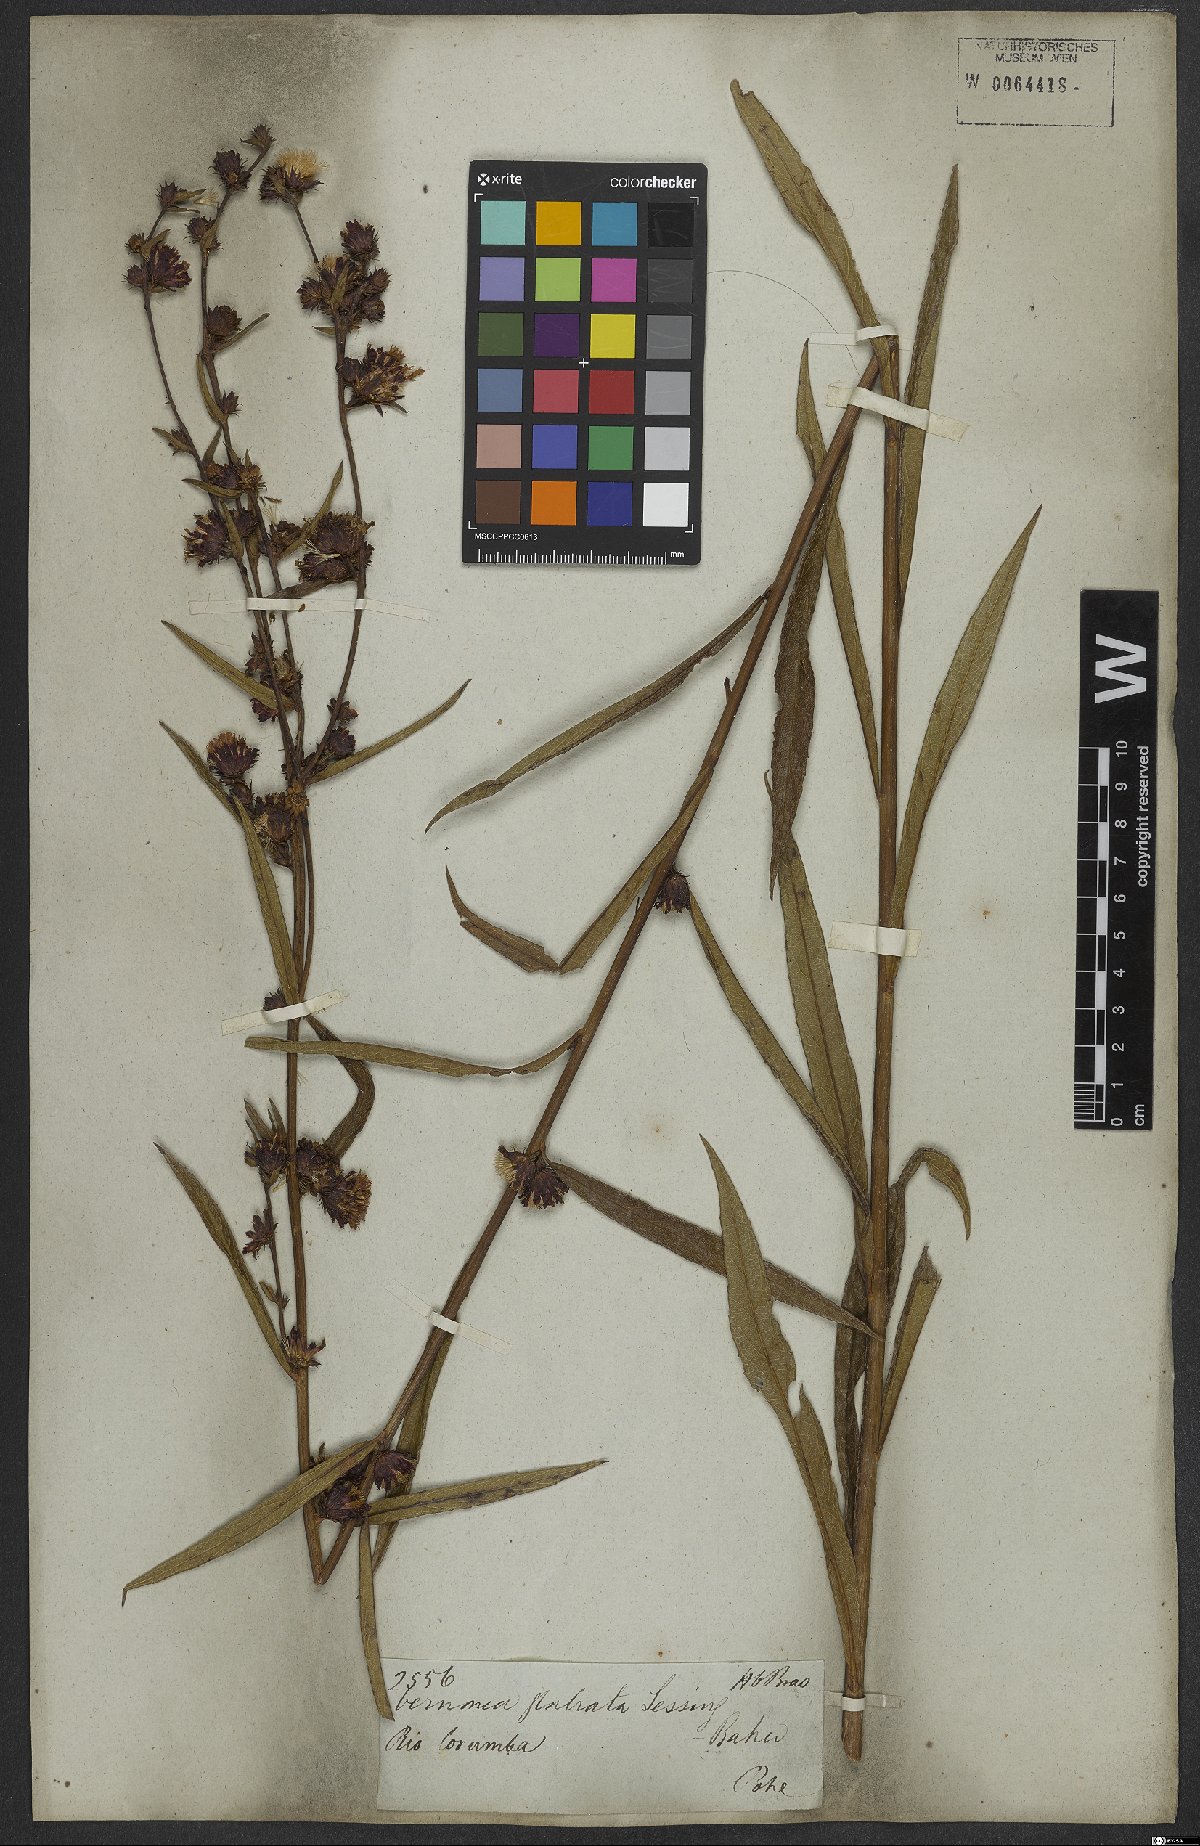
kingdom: Plantae
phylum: Tracheophyta
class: Magnoliopsida
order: Asterales
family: Asteraceae
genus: Lessingianthus
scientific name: Lessingianthus glabratus
